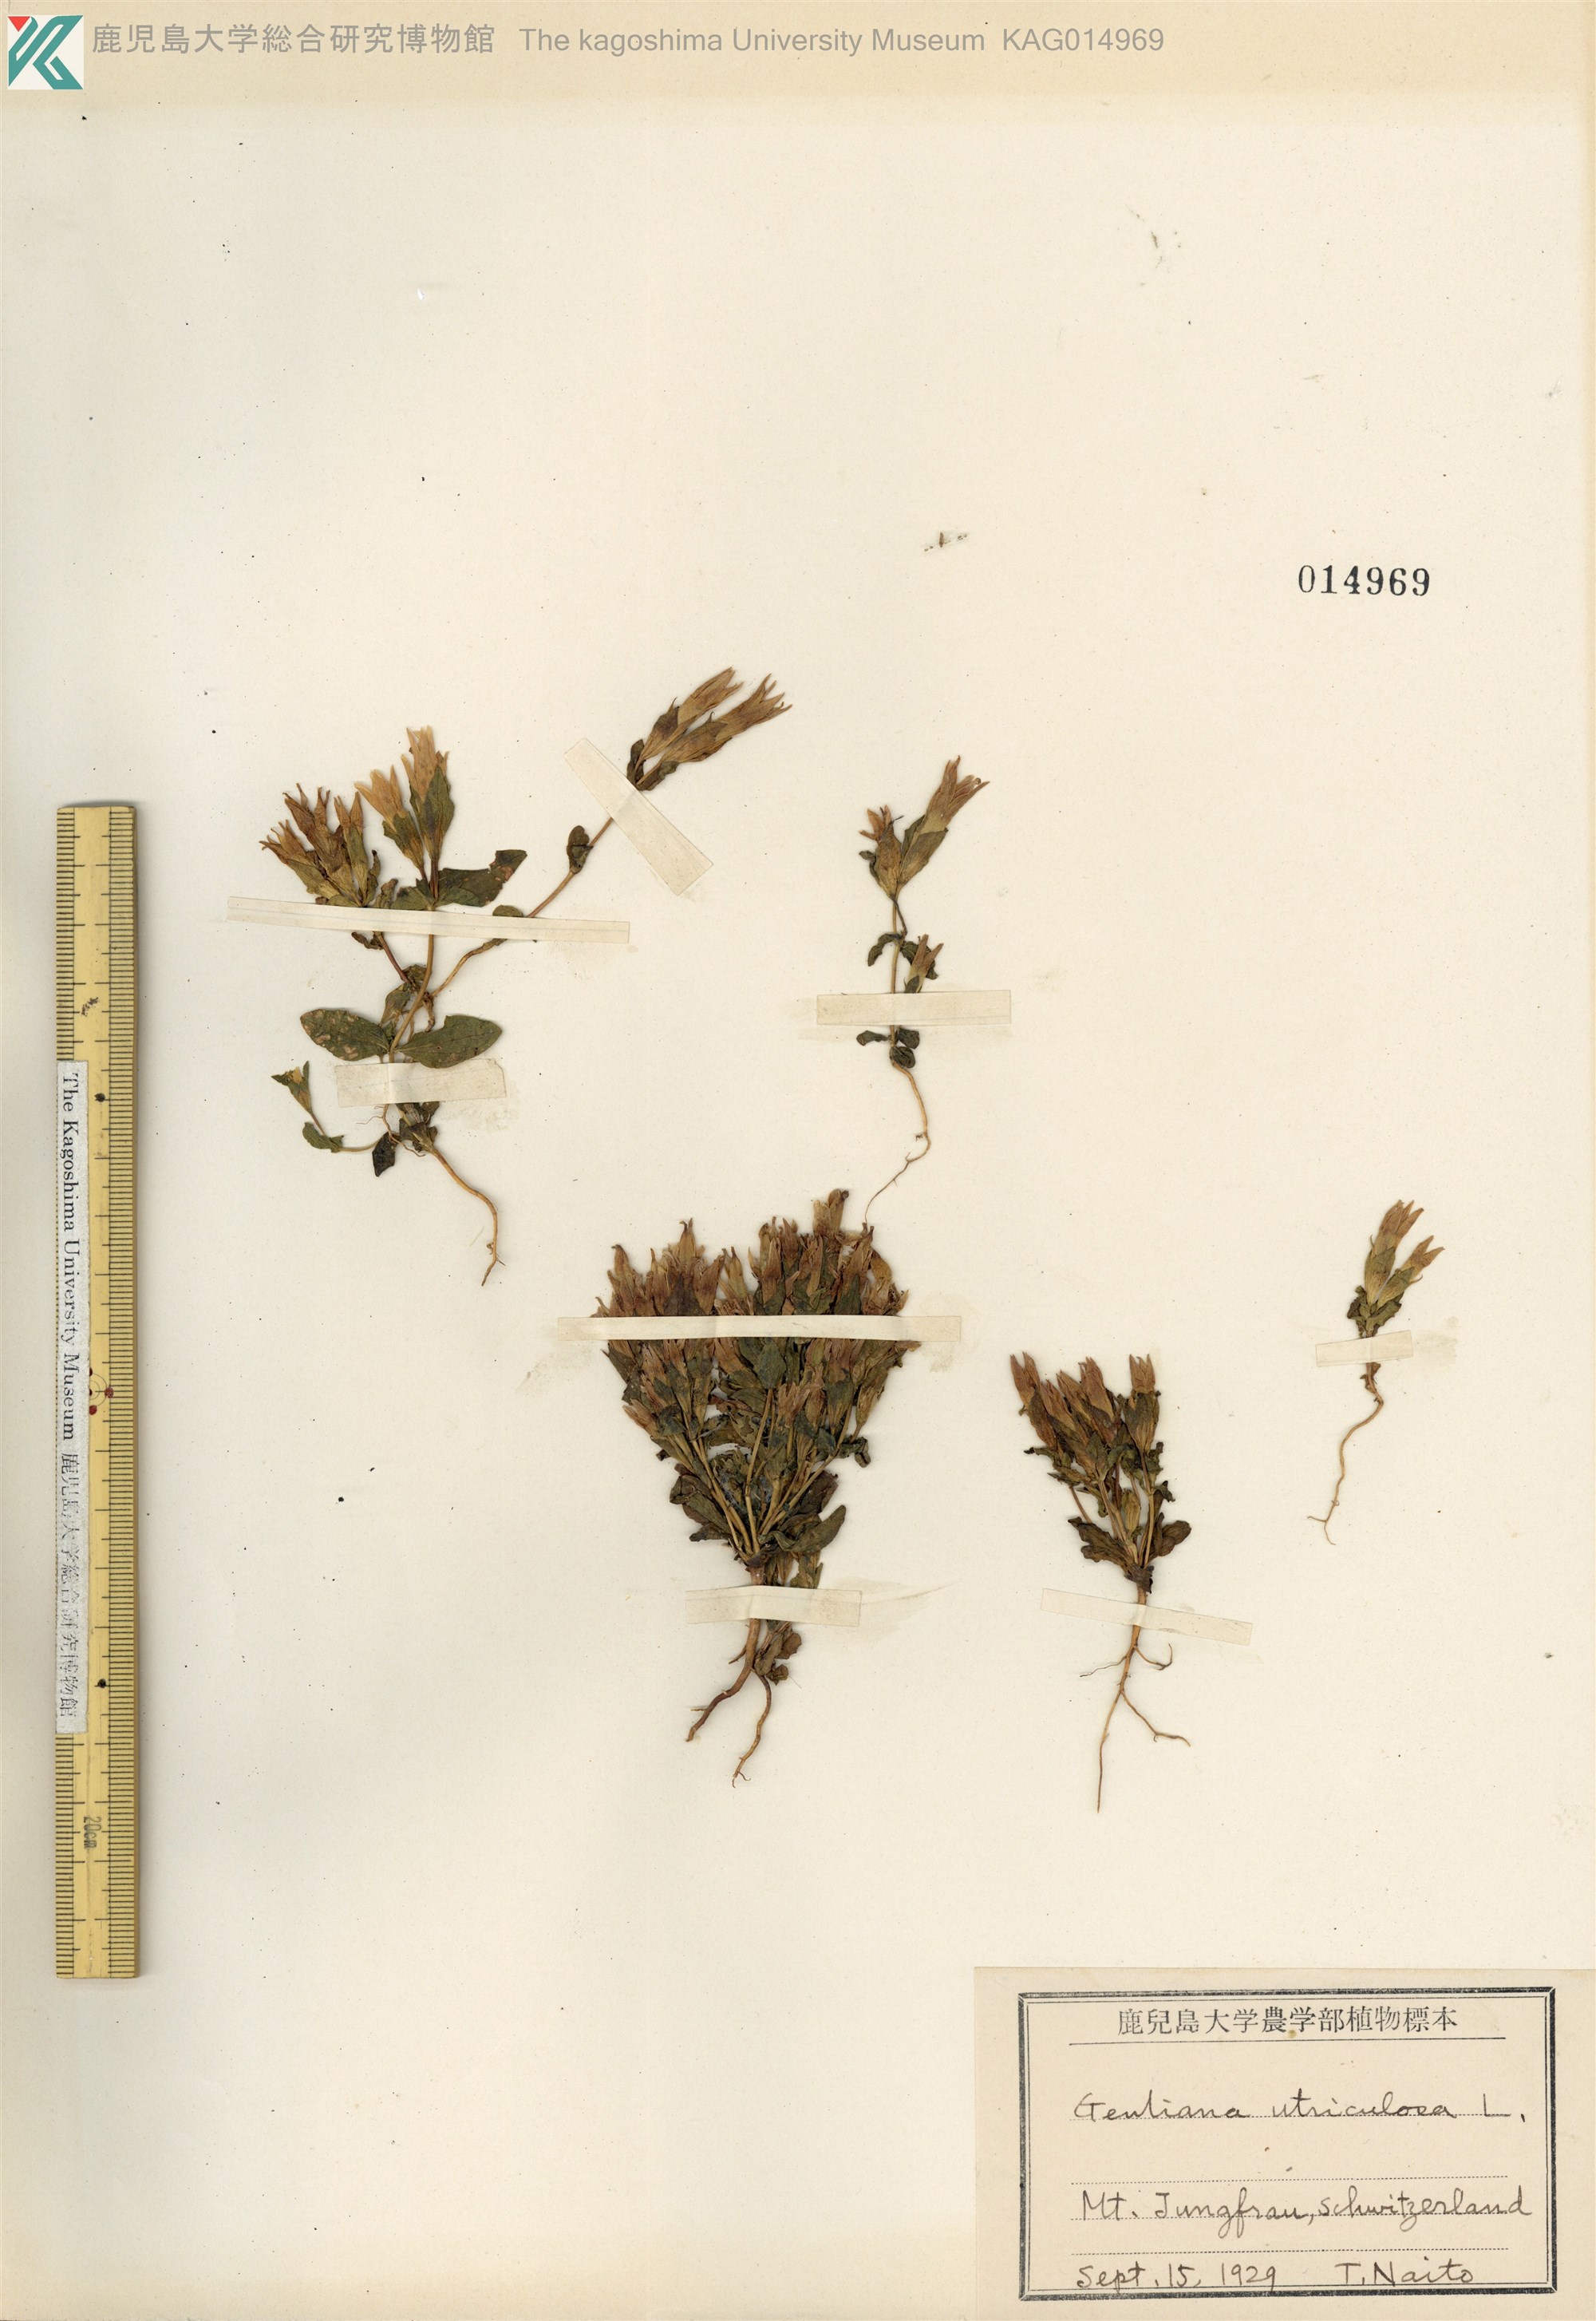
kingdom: Plantae
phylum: Tracheophyta
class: Magnoliopsida
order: Gentianales
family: Gentianaceae
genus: Gentiana
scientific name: Gentiana
